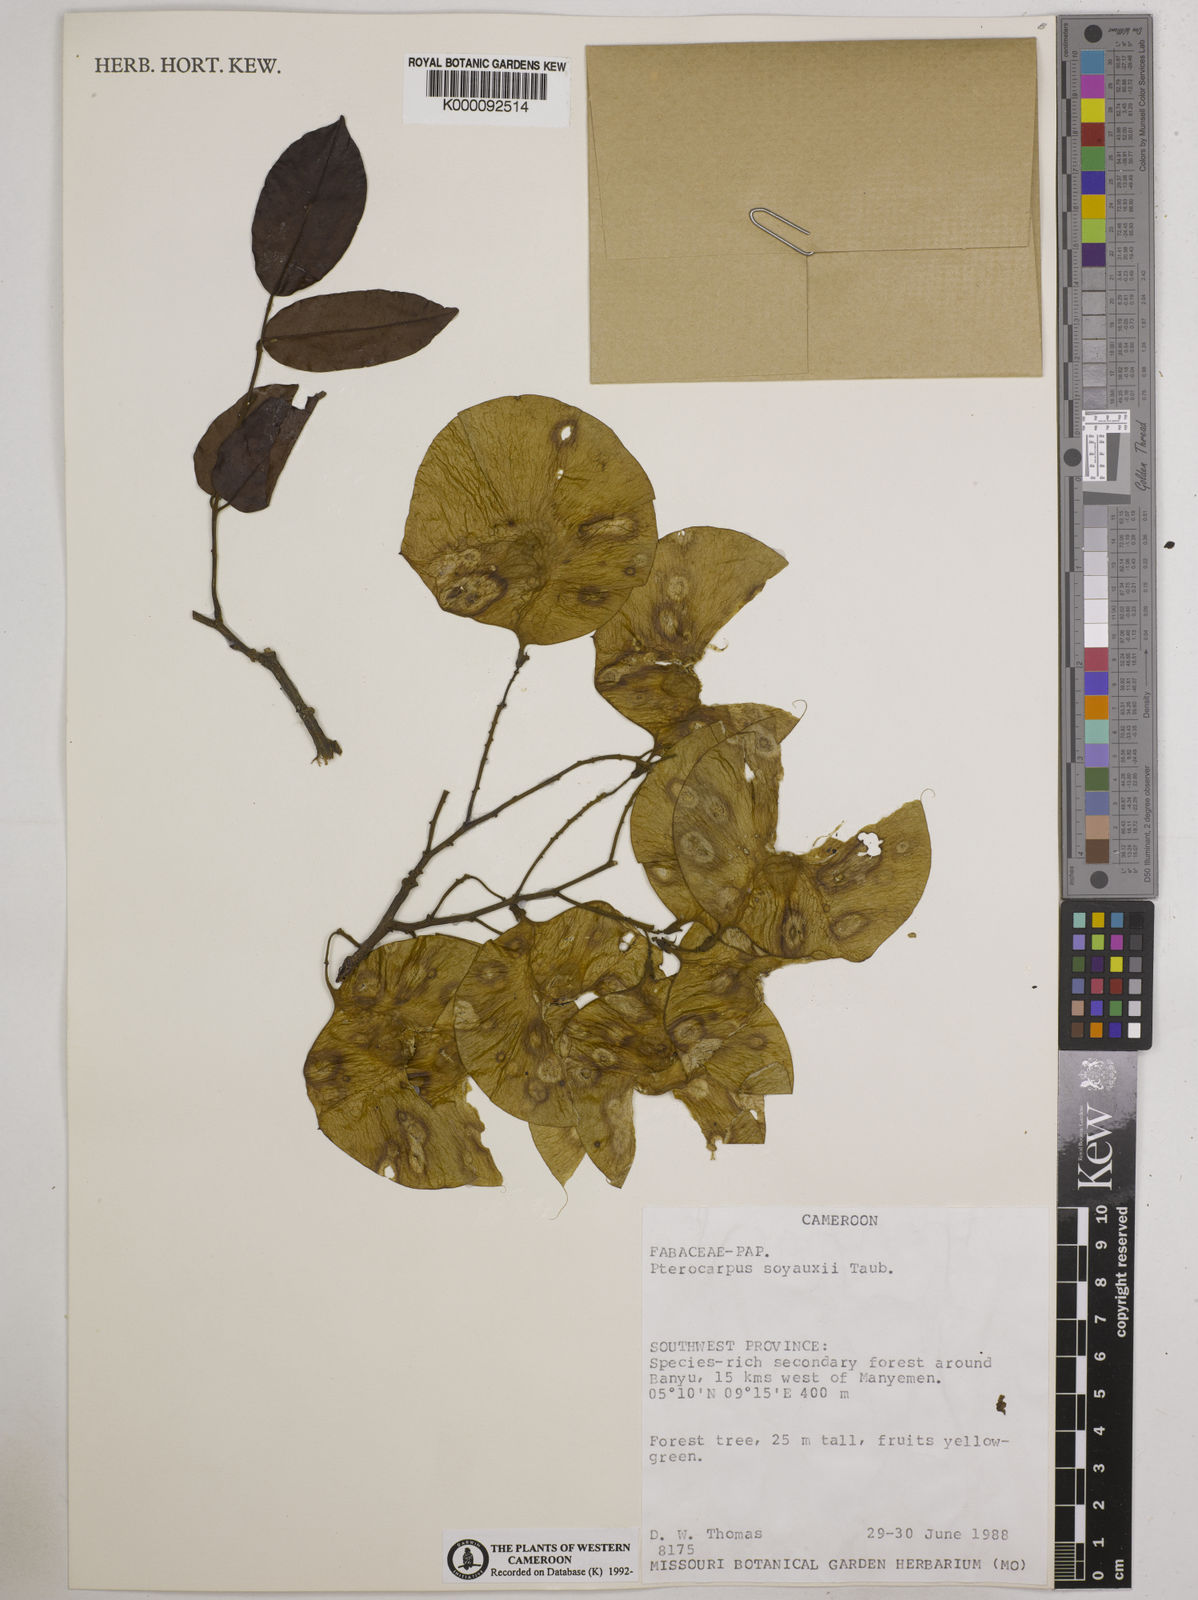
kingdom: Plantae
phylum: Tracheophyta
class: Magnoliopsida
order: Fabales
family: Fabaceae
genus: Pterocarpus
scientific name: Pterocarpus soyauxii
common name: African coralwood
